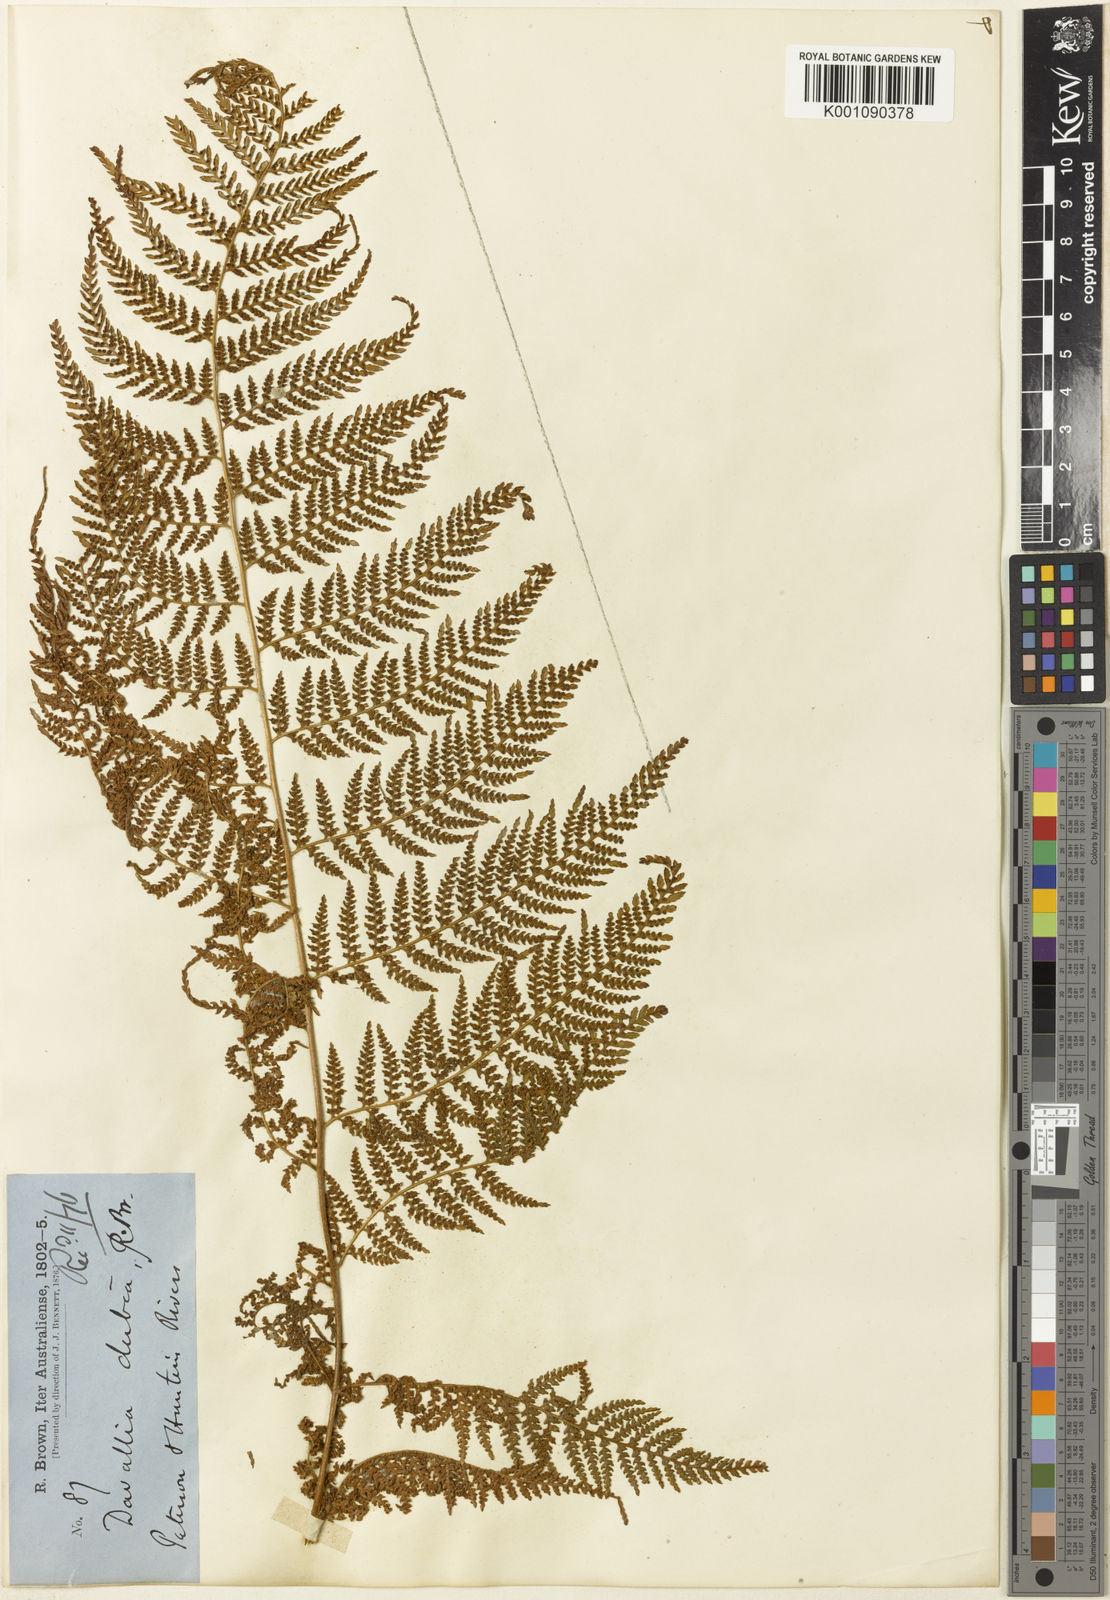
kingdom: Plantae
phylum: Tracheophyta
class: Polypodiopsida
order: Cyatheales
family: Dicksoniaceae
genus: Calochlaena
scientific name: Calochlaena dubia
